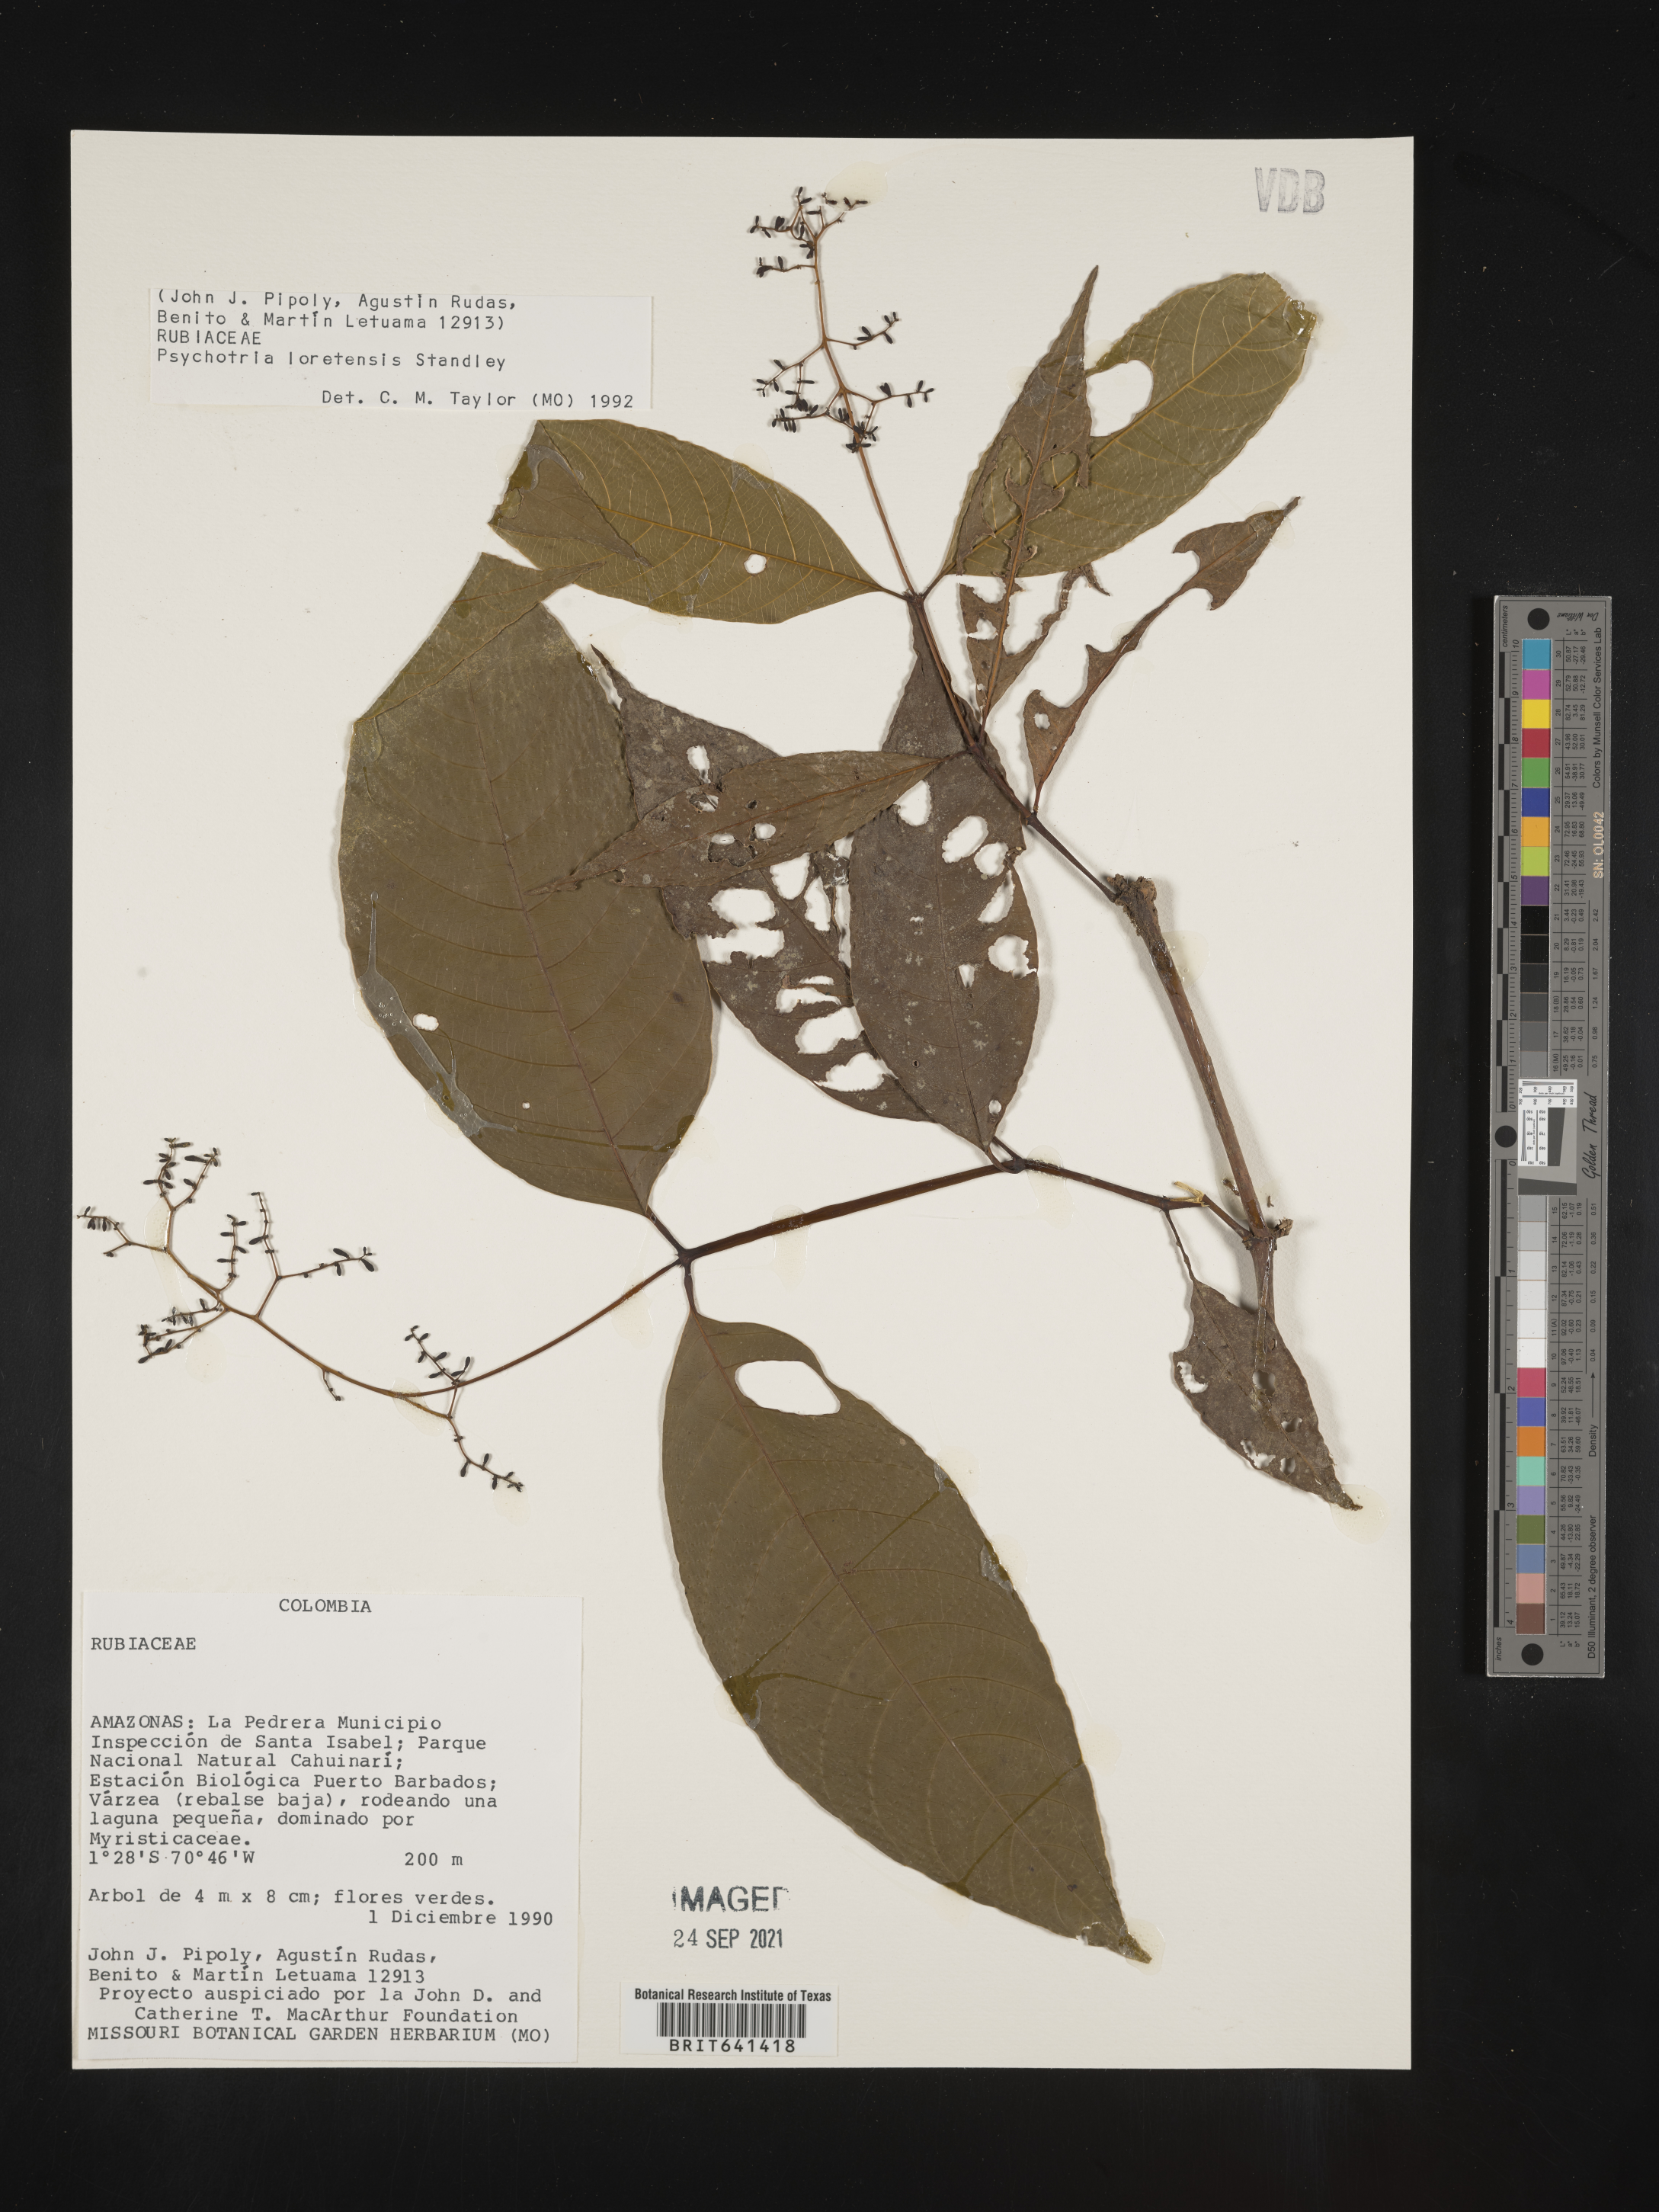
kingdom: Plantae
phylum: Tracheophyta
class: Magnoliopsida
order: Gentianales
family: Rubiaceae
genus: Psychotria
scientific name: Psychotria
